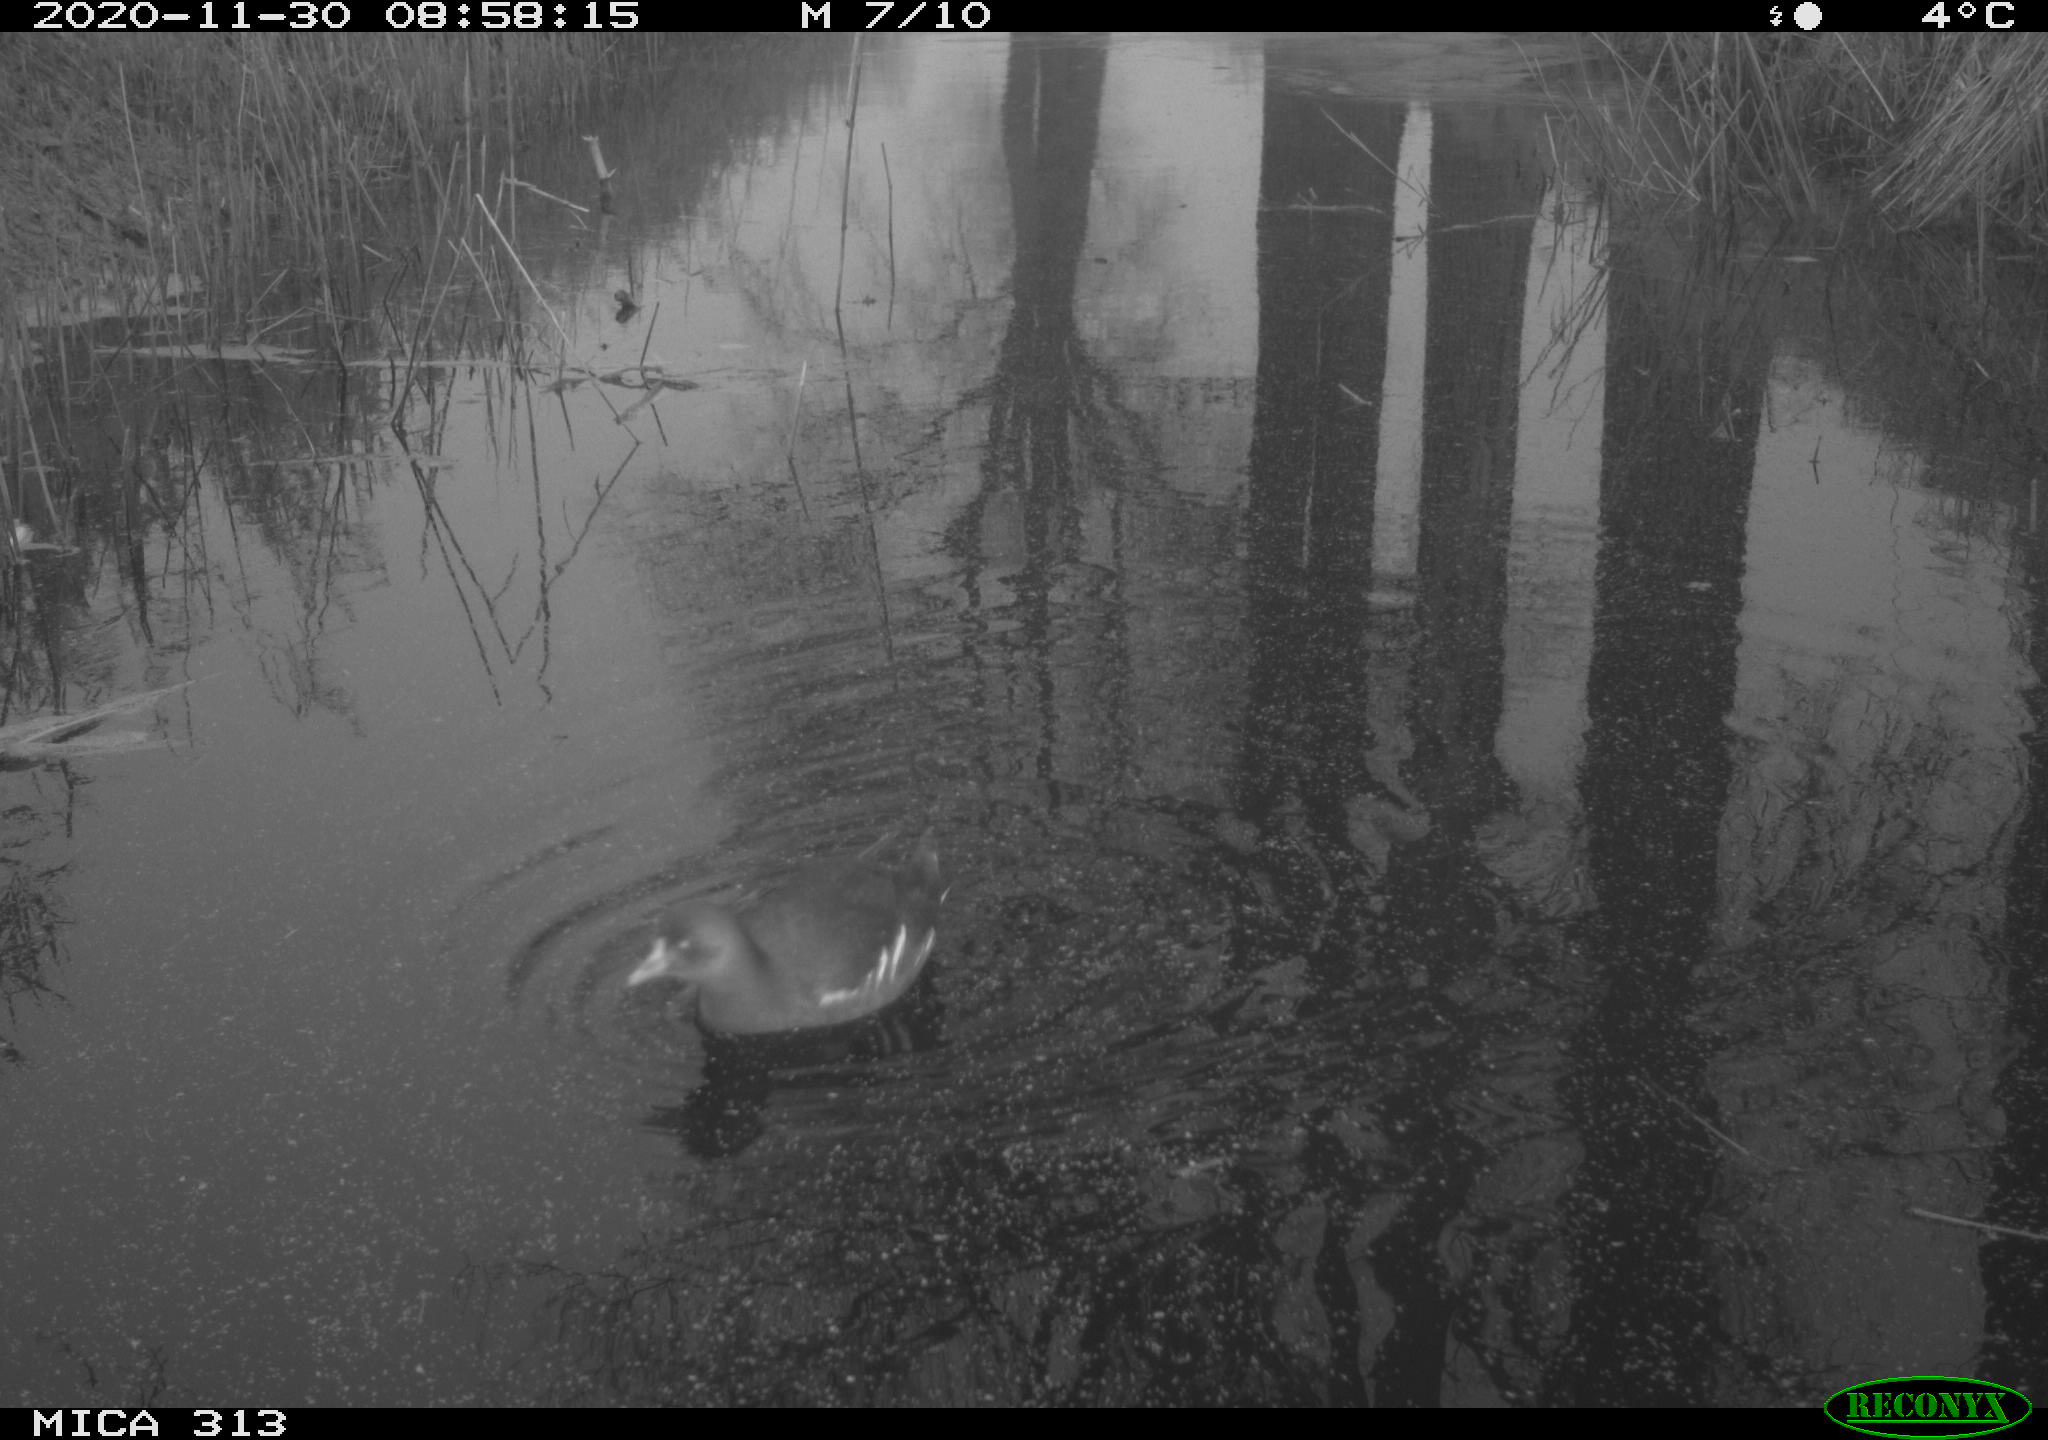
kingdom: Animalia
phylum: Chordata
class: Aves
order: Gruiformes
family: Rallidae
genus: Gallinula
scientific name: Gallinula chloropus
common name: Common moorhen
